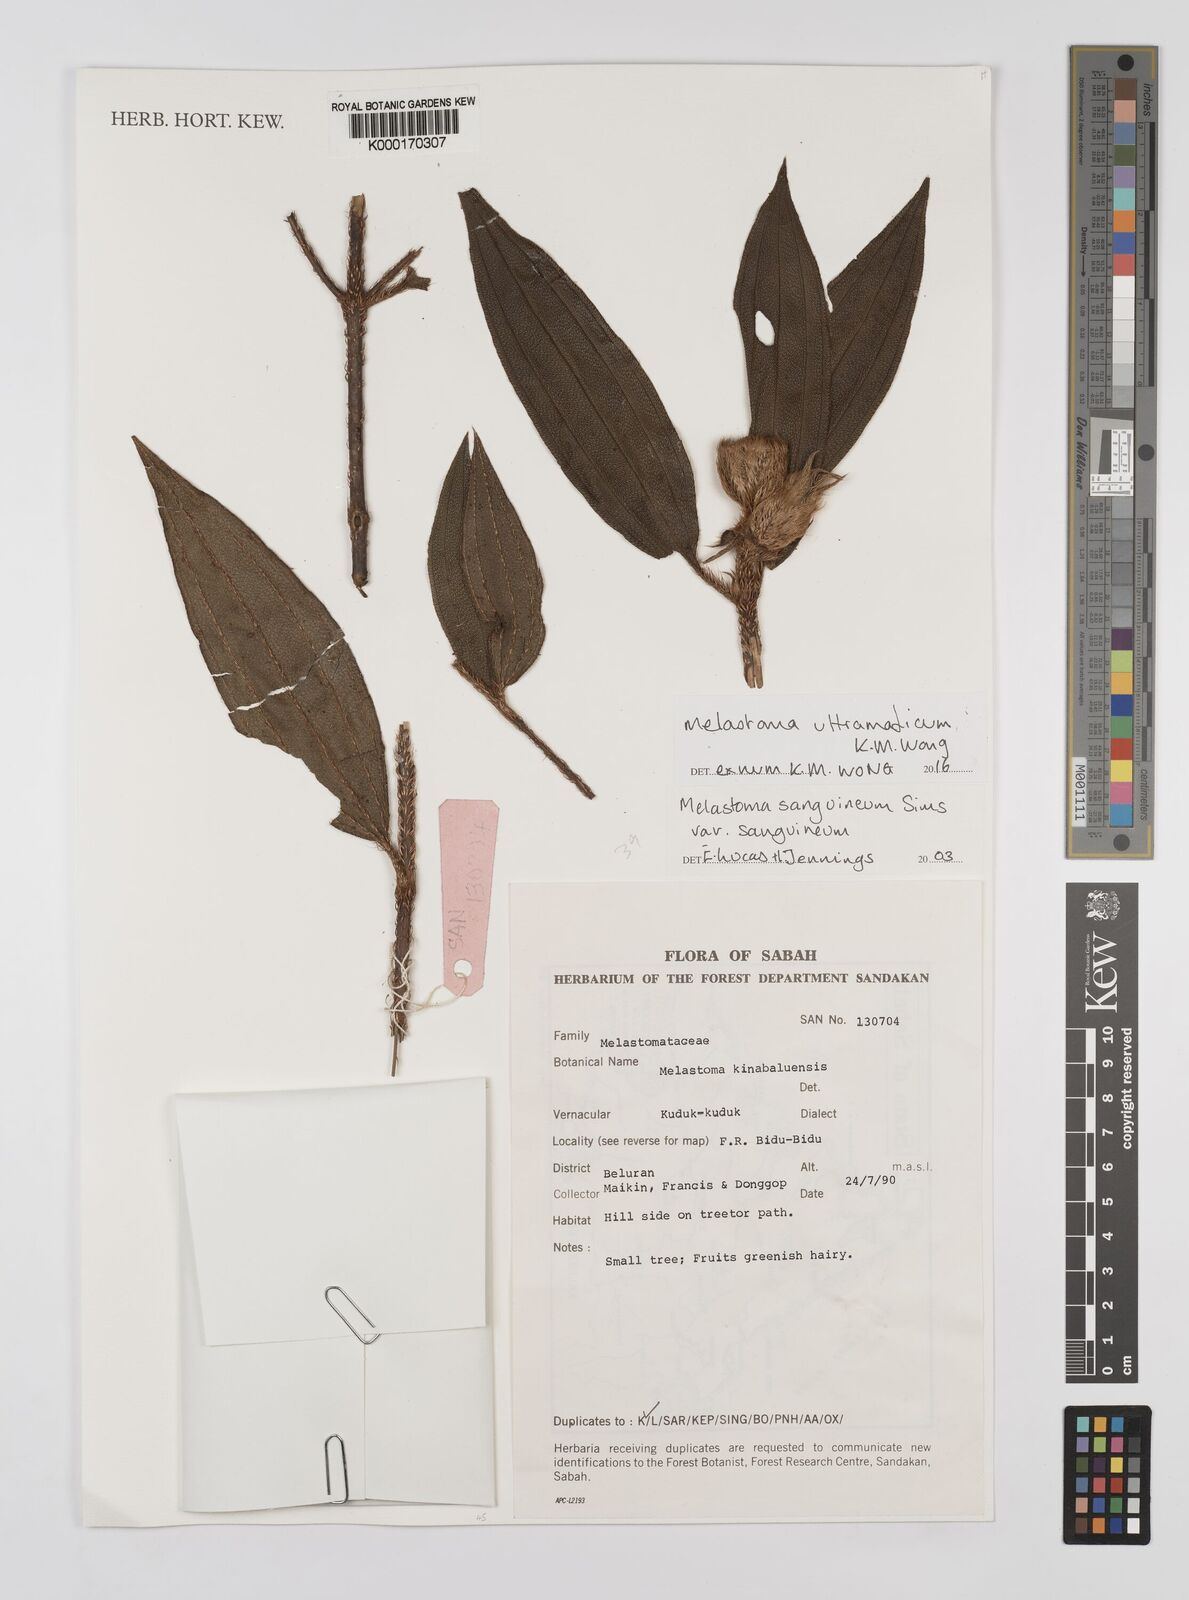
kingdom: Plantae
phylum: Tracheophyta
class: Magnoliopsida
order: Myrtales
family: Melastomataceae
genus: Melastoma
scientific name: Melastoma ultramaficum
